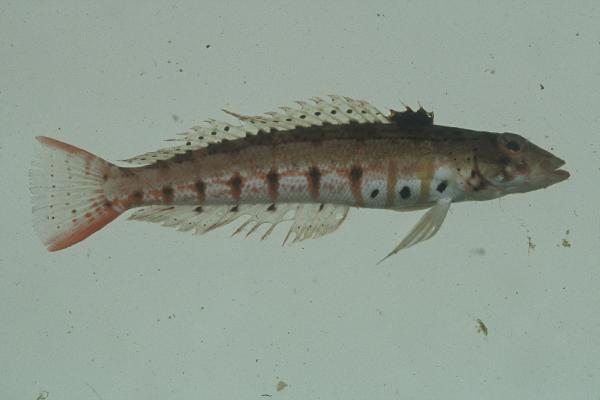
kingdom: Animalia
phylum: Chordata
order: Perciformes
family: Pinguipedidae
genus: Parapercis
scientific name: Parapercis punctulata
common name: Spotted sandperch
